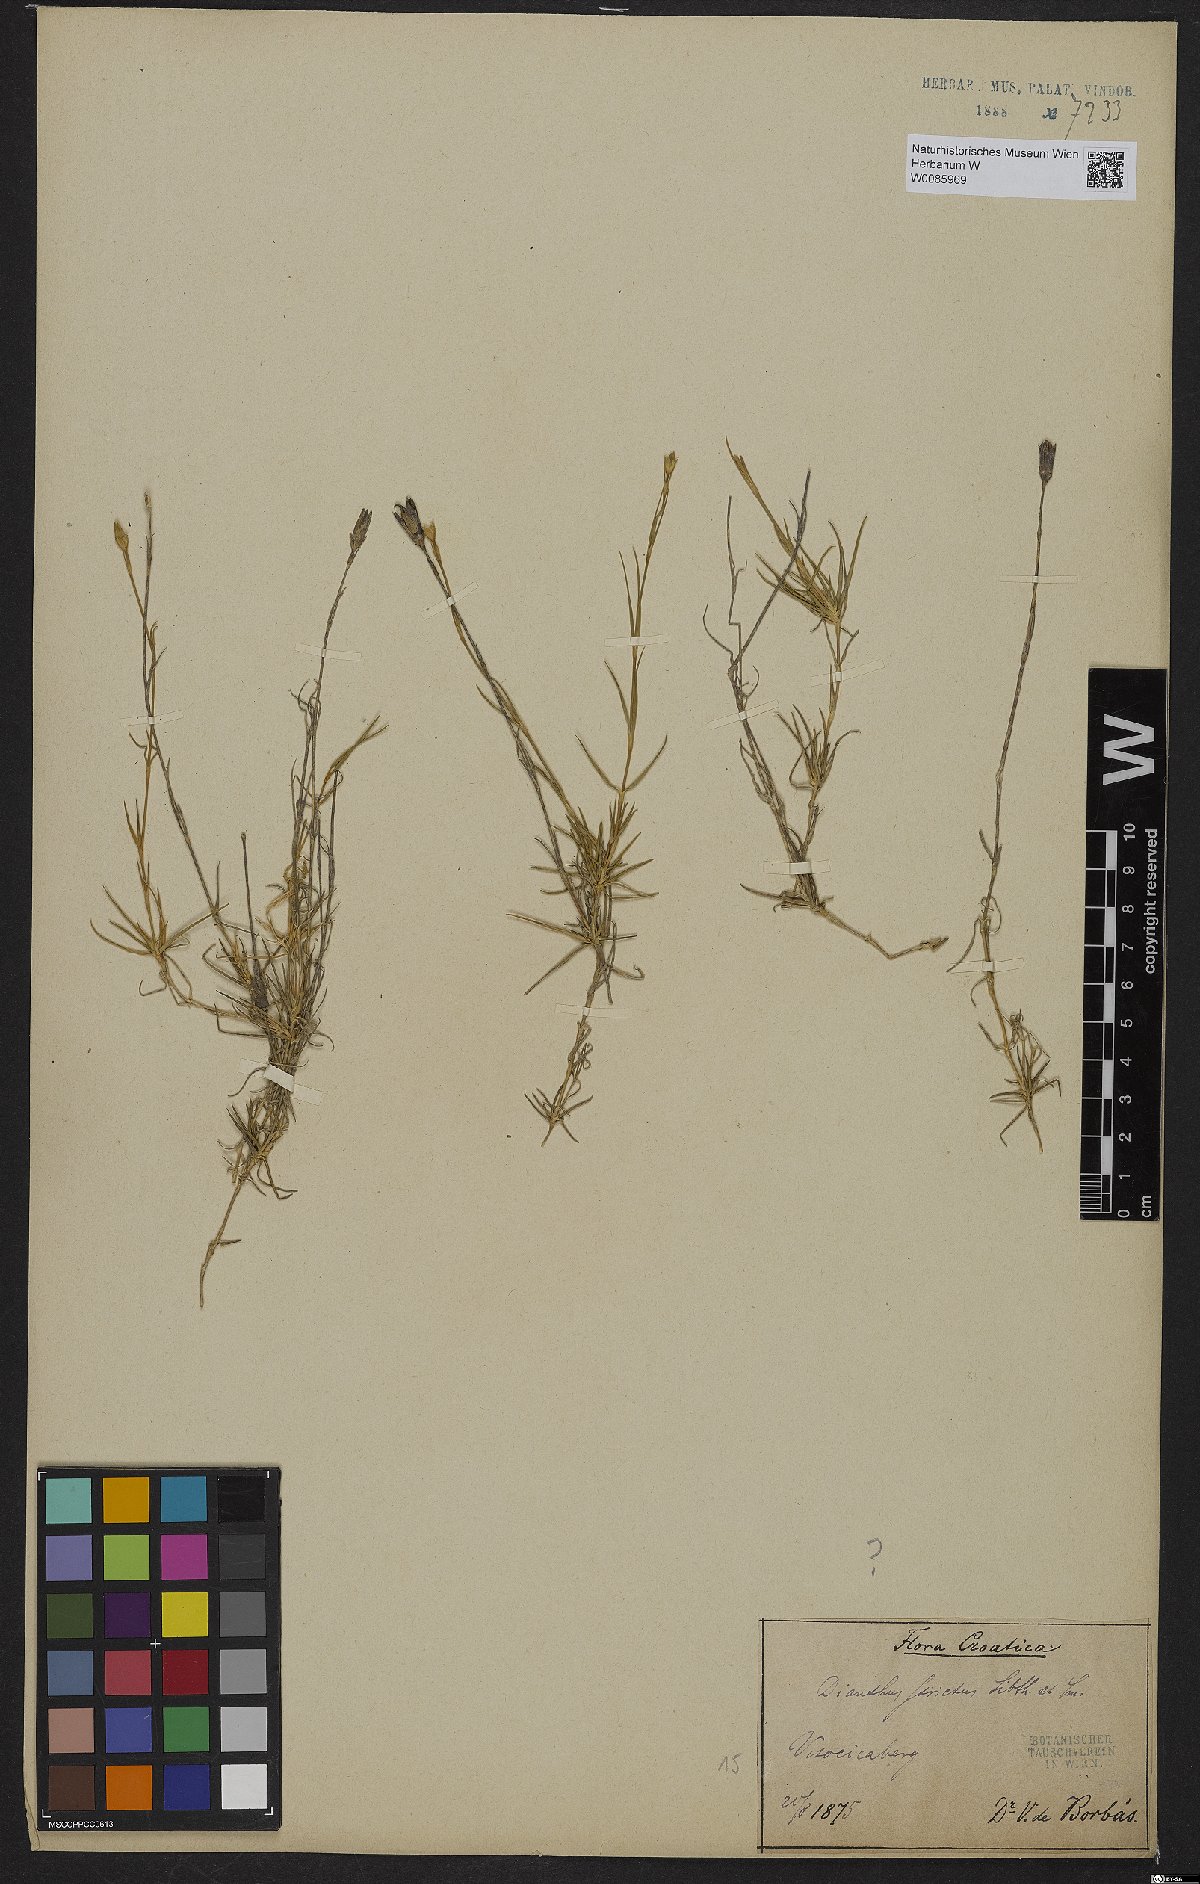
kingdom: Plantae
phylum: Tracheophyta
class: Magnoliopsida
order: Caryophyllales
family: Caryophyllaceae
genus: Dianthus
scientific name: Dianthus petraeus
